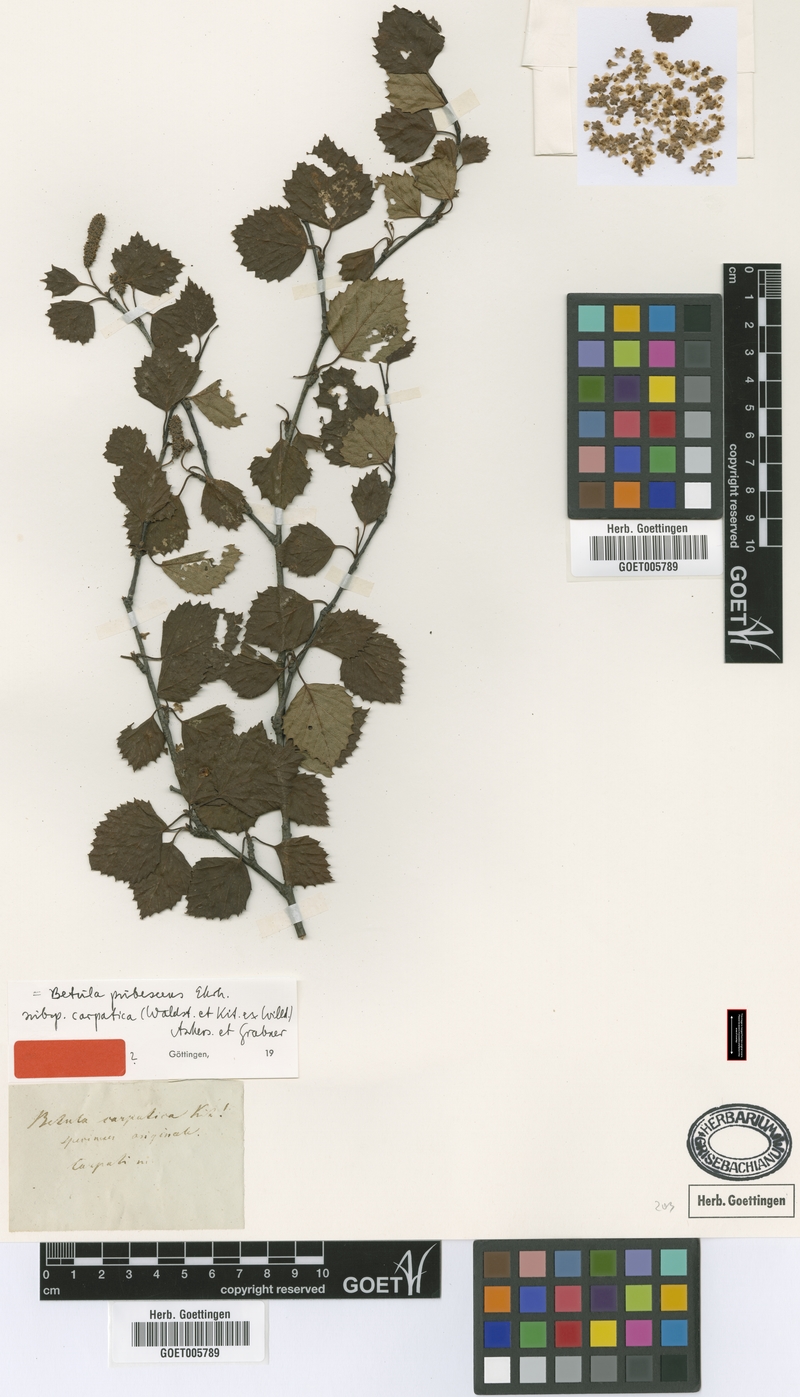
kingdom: Plantae
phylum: Tracheophyta
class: Magnoliopsida
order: Fagales
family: Betulaceae
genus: Betula
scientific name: Betula pubescens
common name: Downy birch
